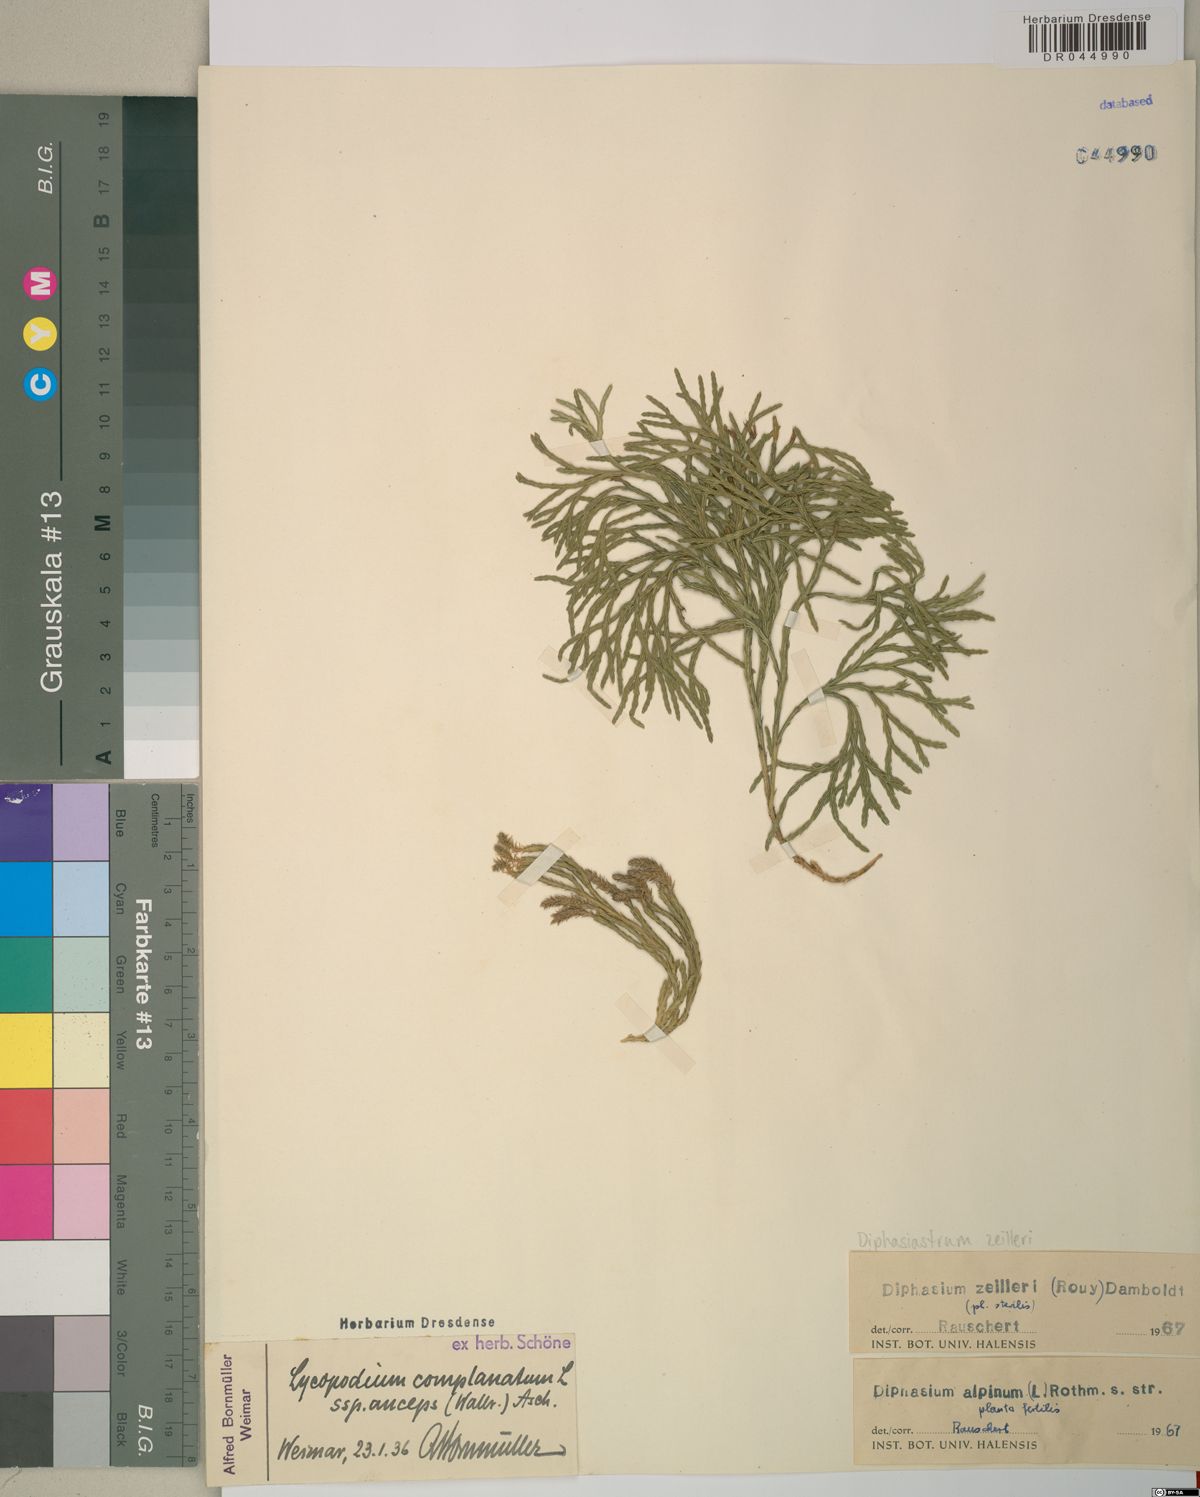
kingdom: Plantae
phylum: Tracheophyta
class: Lycopodiopsida
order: Lycopodiales
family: Lycopodiaceae
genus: Diphasiastrum
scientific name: Diphasiastrum zeilleri
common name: Zeiller's clubmoss
